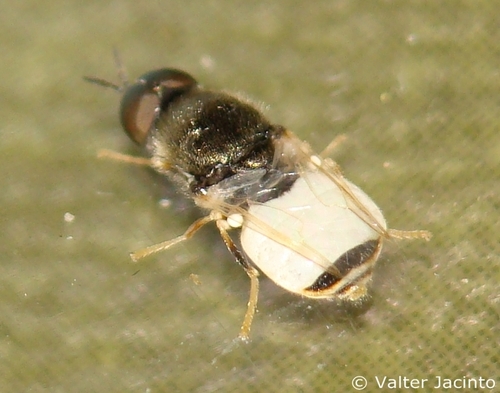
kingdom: Animalia
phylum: Arthropoda
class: Insecta
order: Diptera
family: Stratiomyidae
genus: Nemotelus
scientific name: Nemotelus cylindricornis
